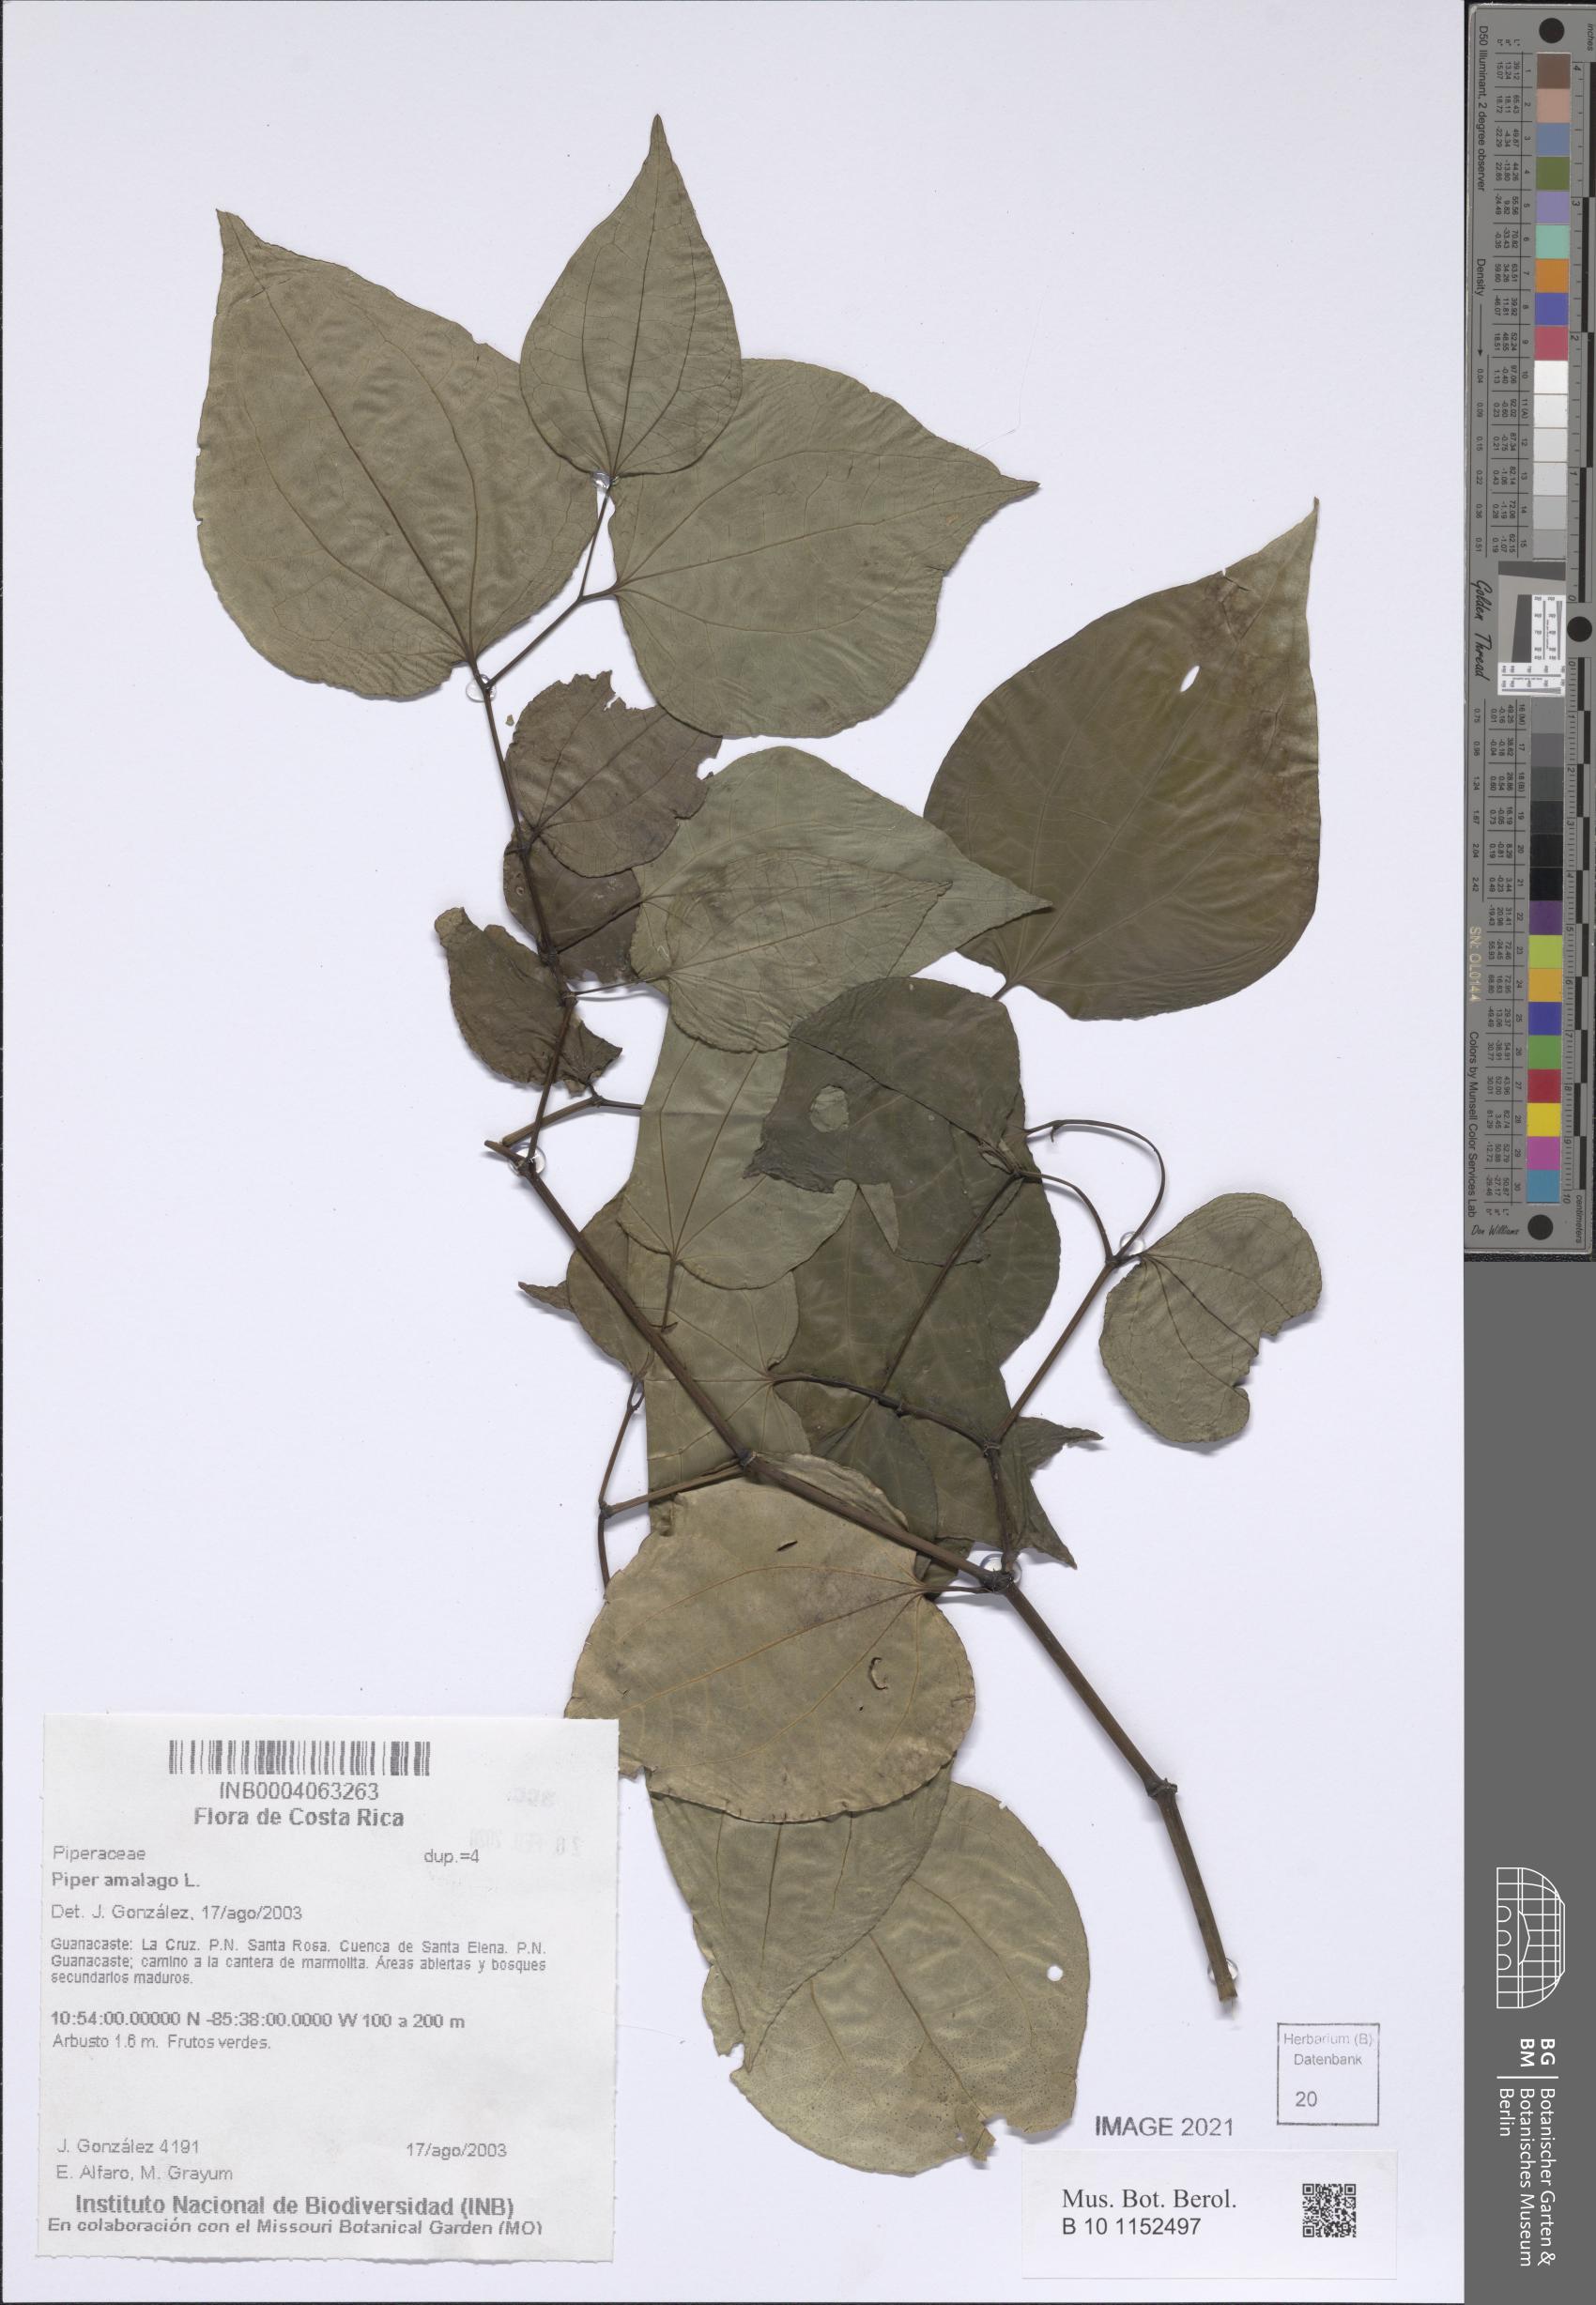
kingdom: Plantae
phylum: Tracheophyta
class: Magnoliopsida
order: Piperales
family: Piperaceae
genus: Piper
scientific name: Piper tenuipes
